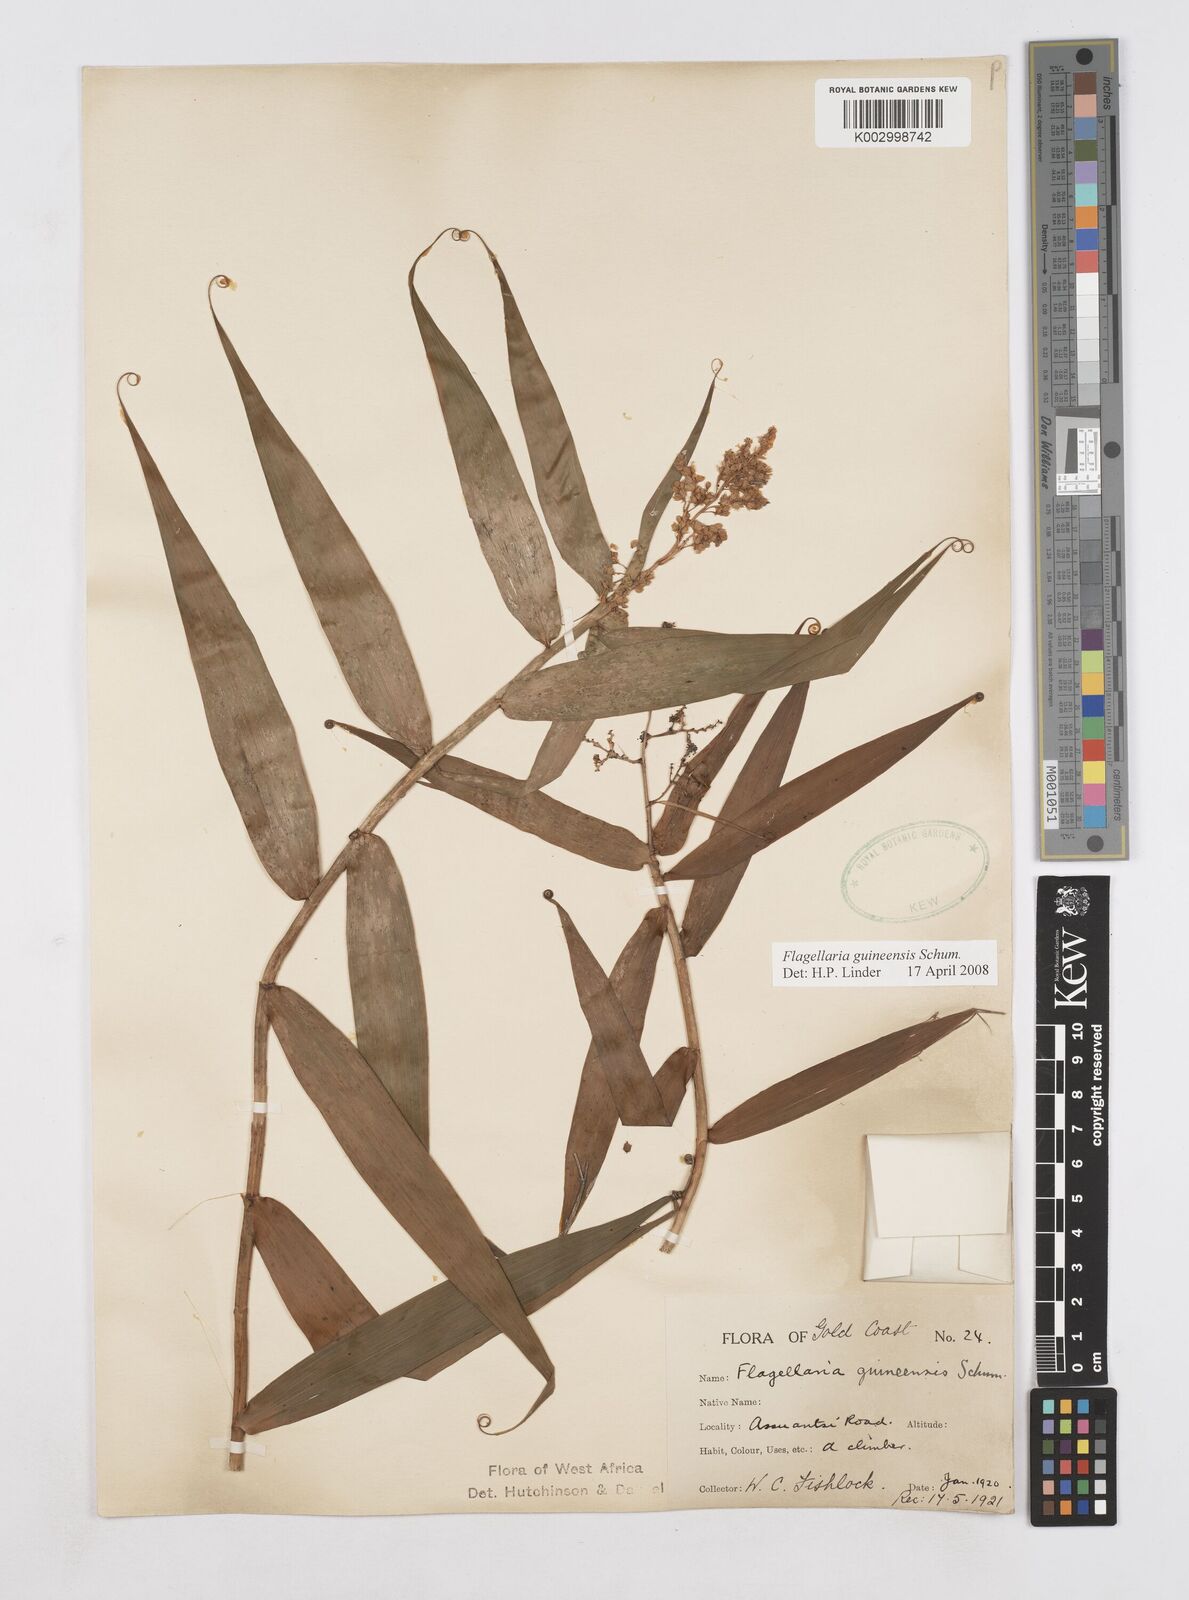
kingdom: Plantae
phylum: Tracheophyta
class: Liliopsida
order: Poales
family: Flagellariaceae
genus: Flagellaria
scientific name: Flagellaria guineensis
